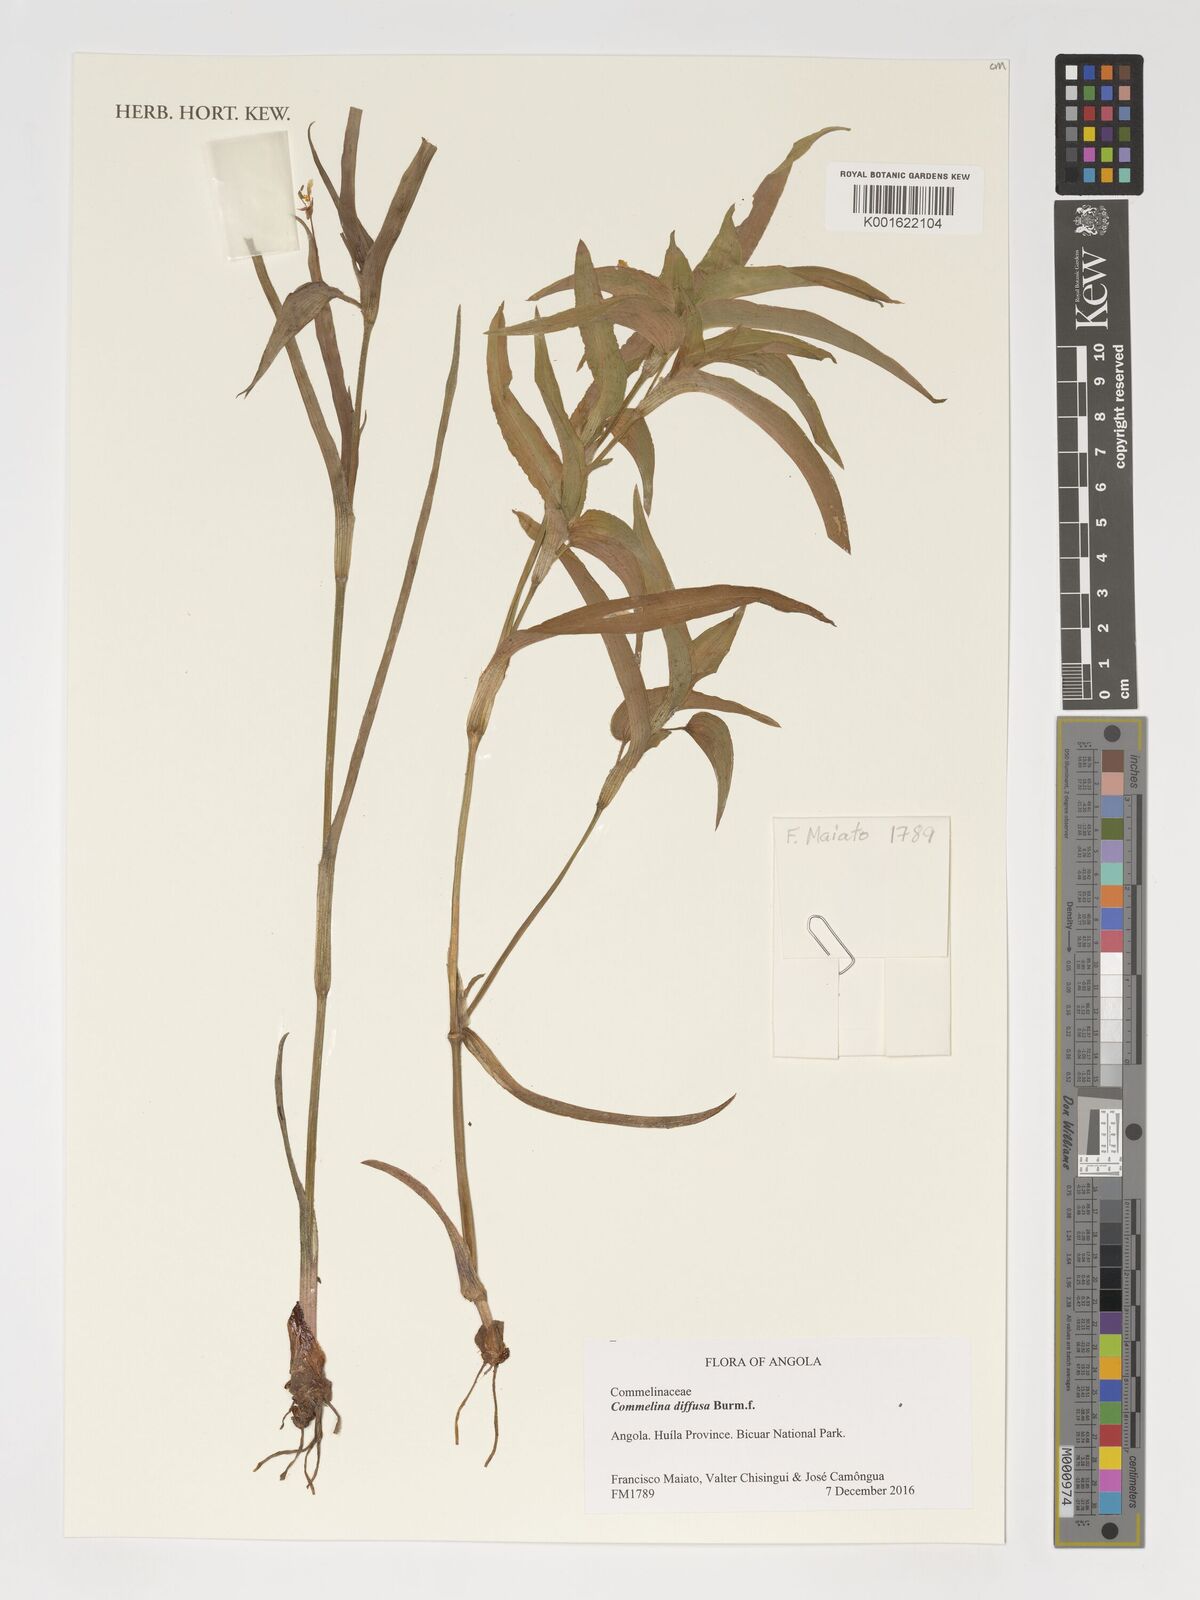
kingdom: Plantae
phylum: Tracheophyta
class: Liliopsida
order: Commelinales
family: Commelinaceae
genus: Commelina
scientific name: Commelina diffusa
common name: Climbing dayflower
